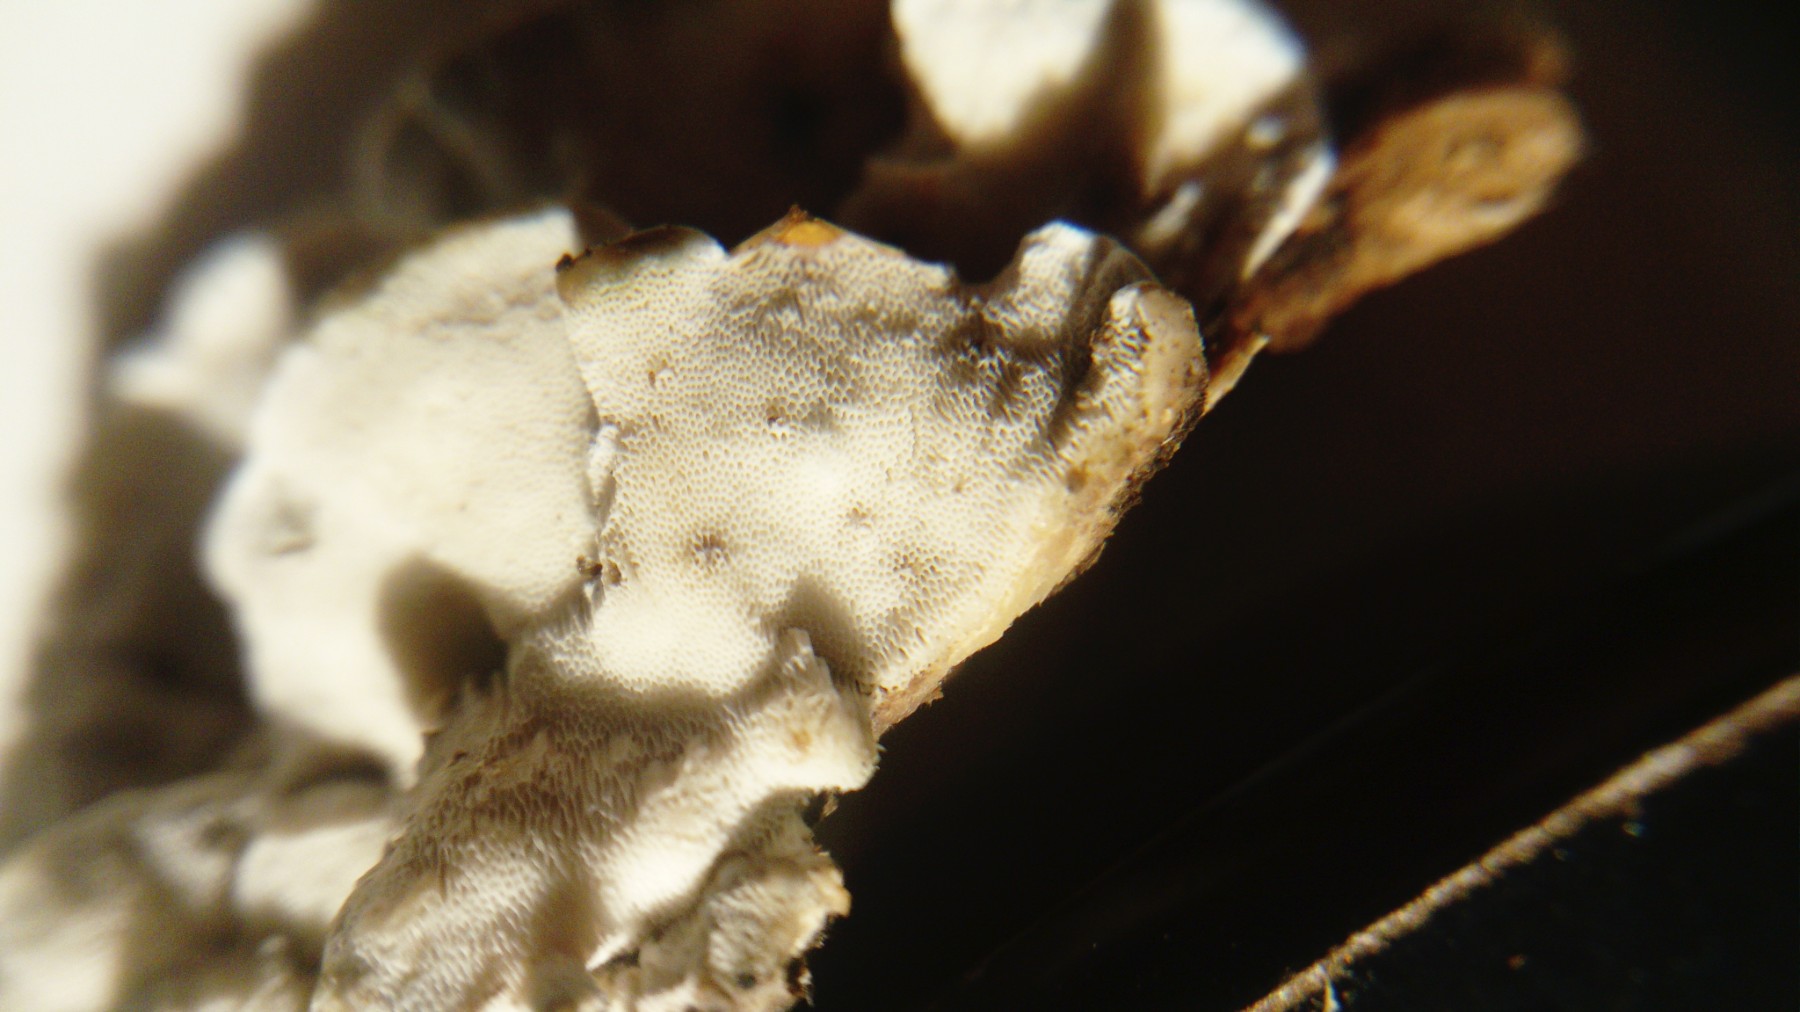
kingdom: Fungi
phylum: Basidiomycota
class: Agaricomycetes
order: Polyporales
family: Incrustoporiaceae
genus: Skeletocutis
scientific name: Skeletocutis nemoralis
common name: stor krystalporesvamp
